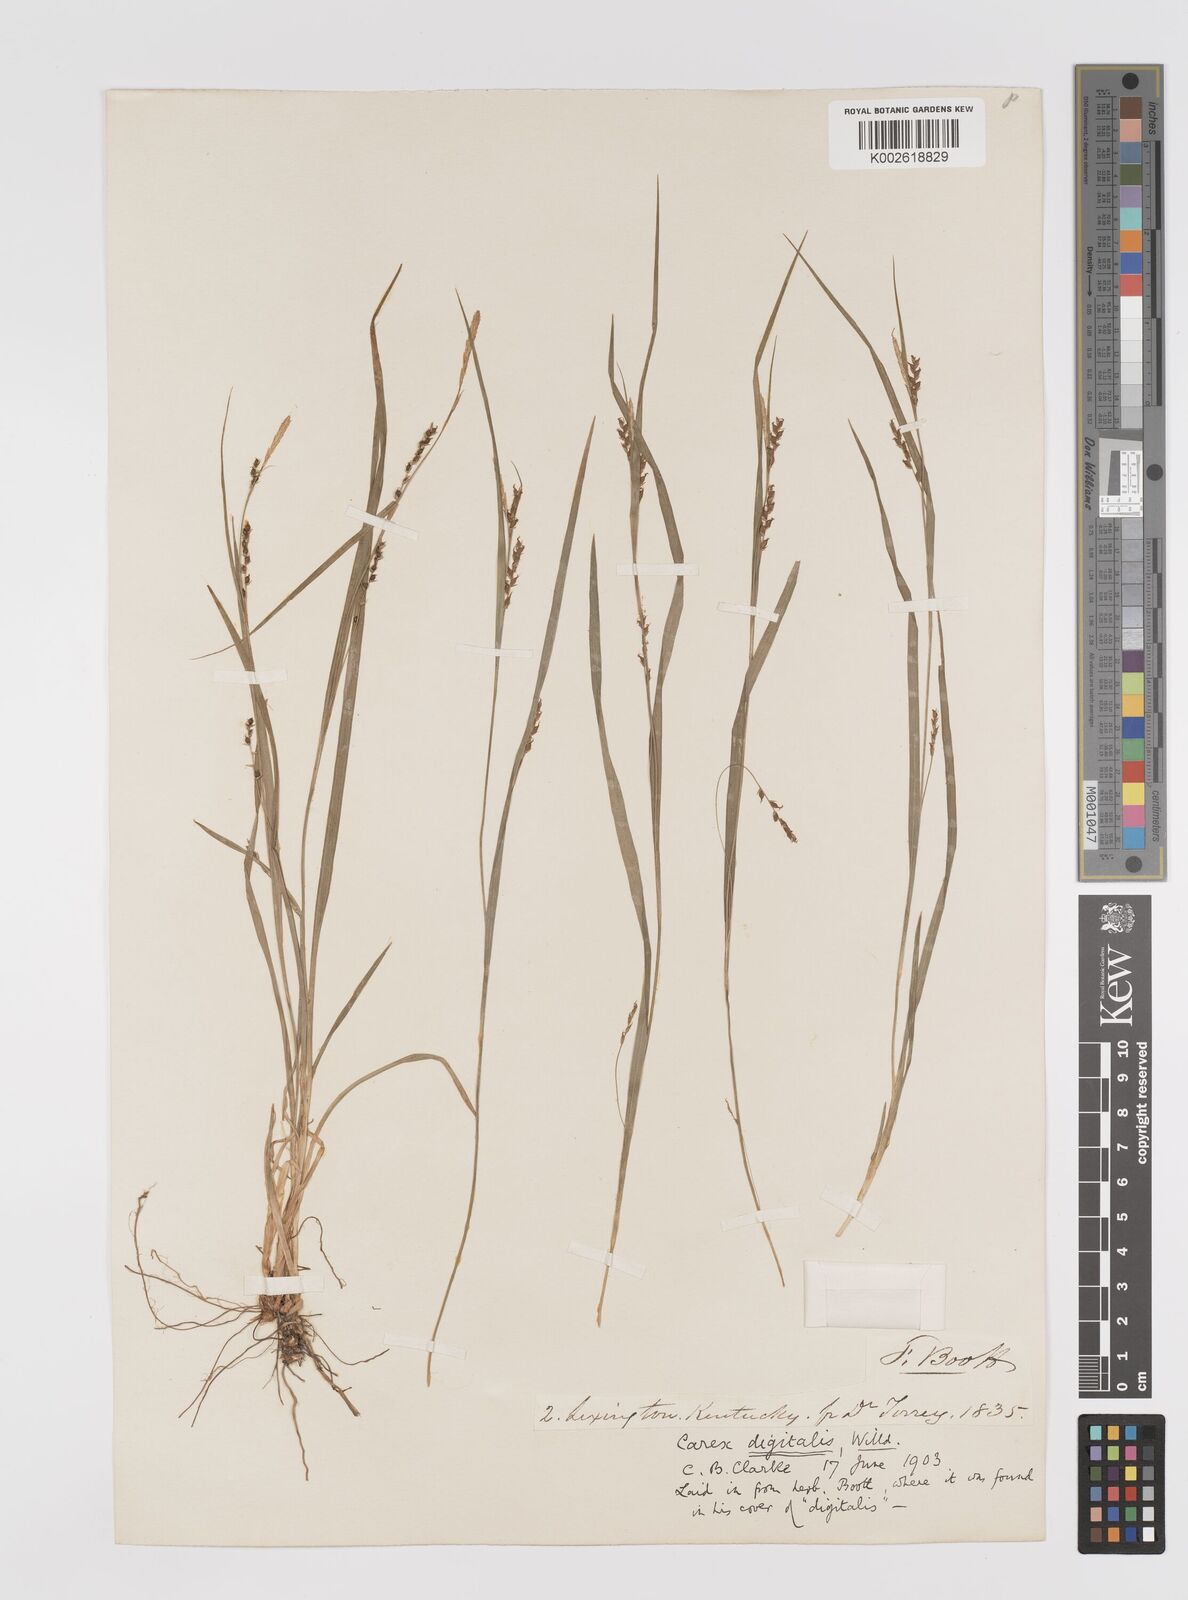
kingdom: Plantae
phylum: Tracheophyta
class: Liliopsida
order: Poales
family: Cyperaceae
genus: Carex
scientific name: Carex digitalis
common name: Slender wood sedge
